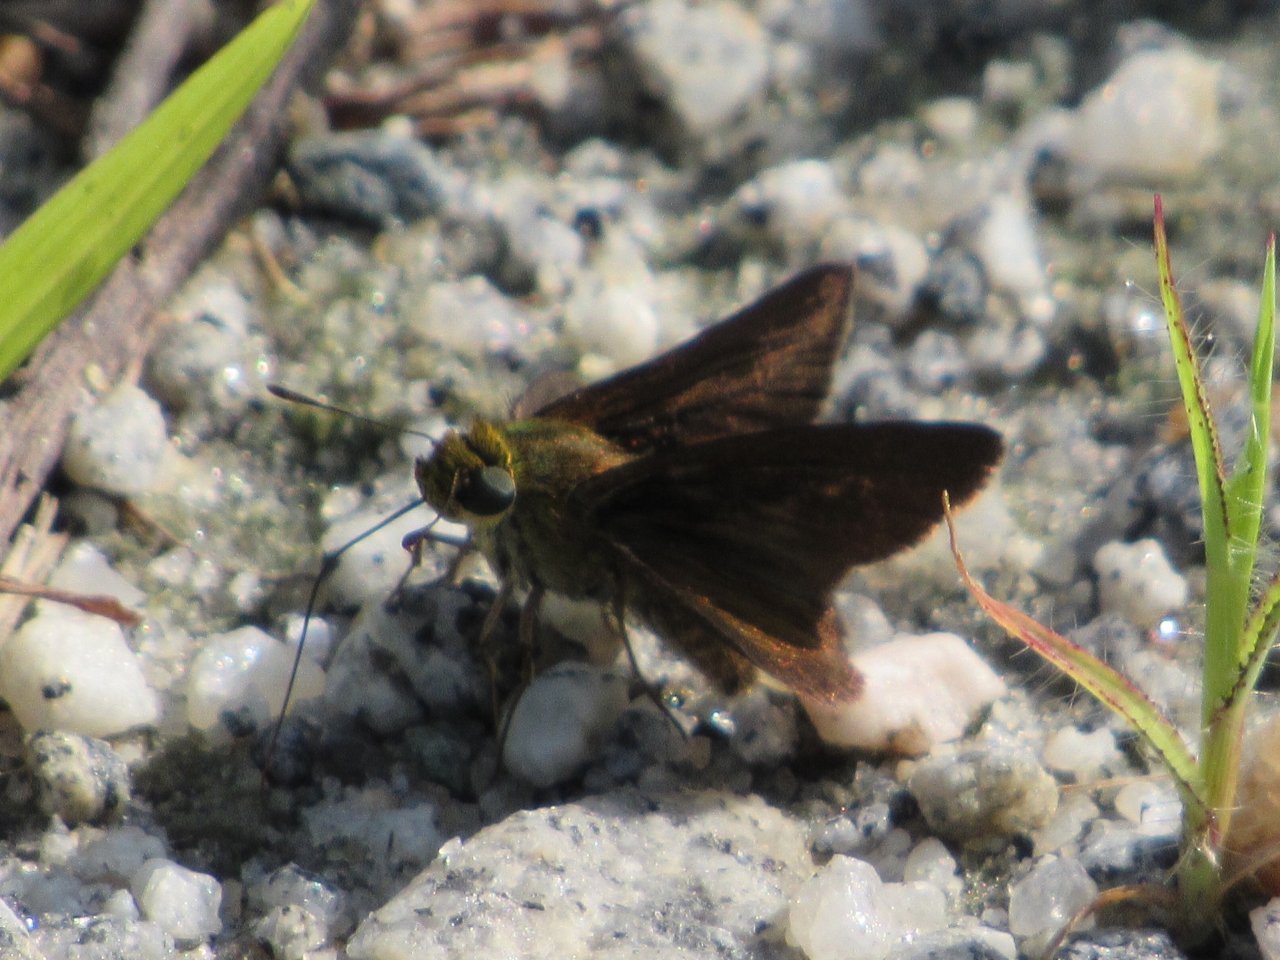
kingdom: Animalia
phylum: Arthropoda
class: Insecta
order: Lepidoptera
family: Hesperiidae
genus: Euphyes
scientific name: Euphyes vestris
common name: Dun Skipper
